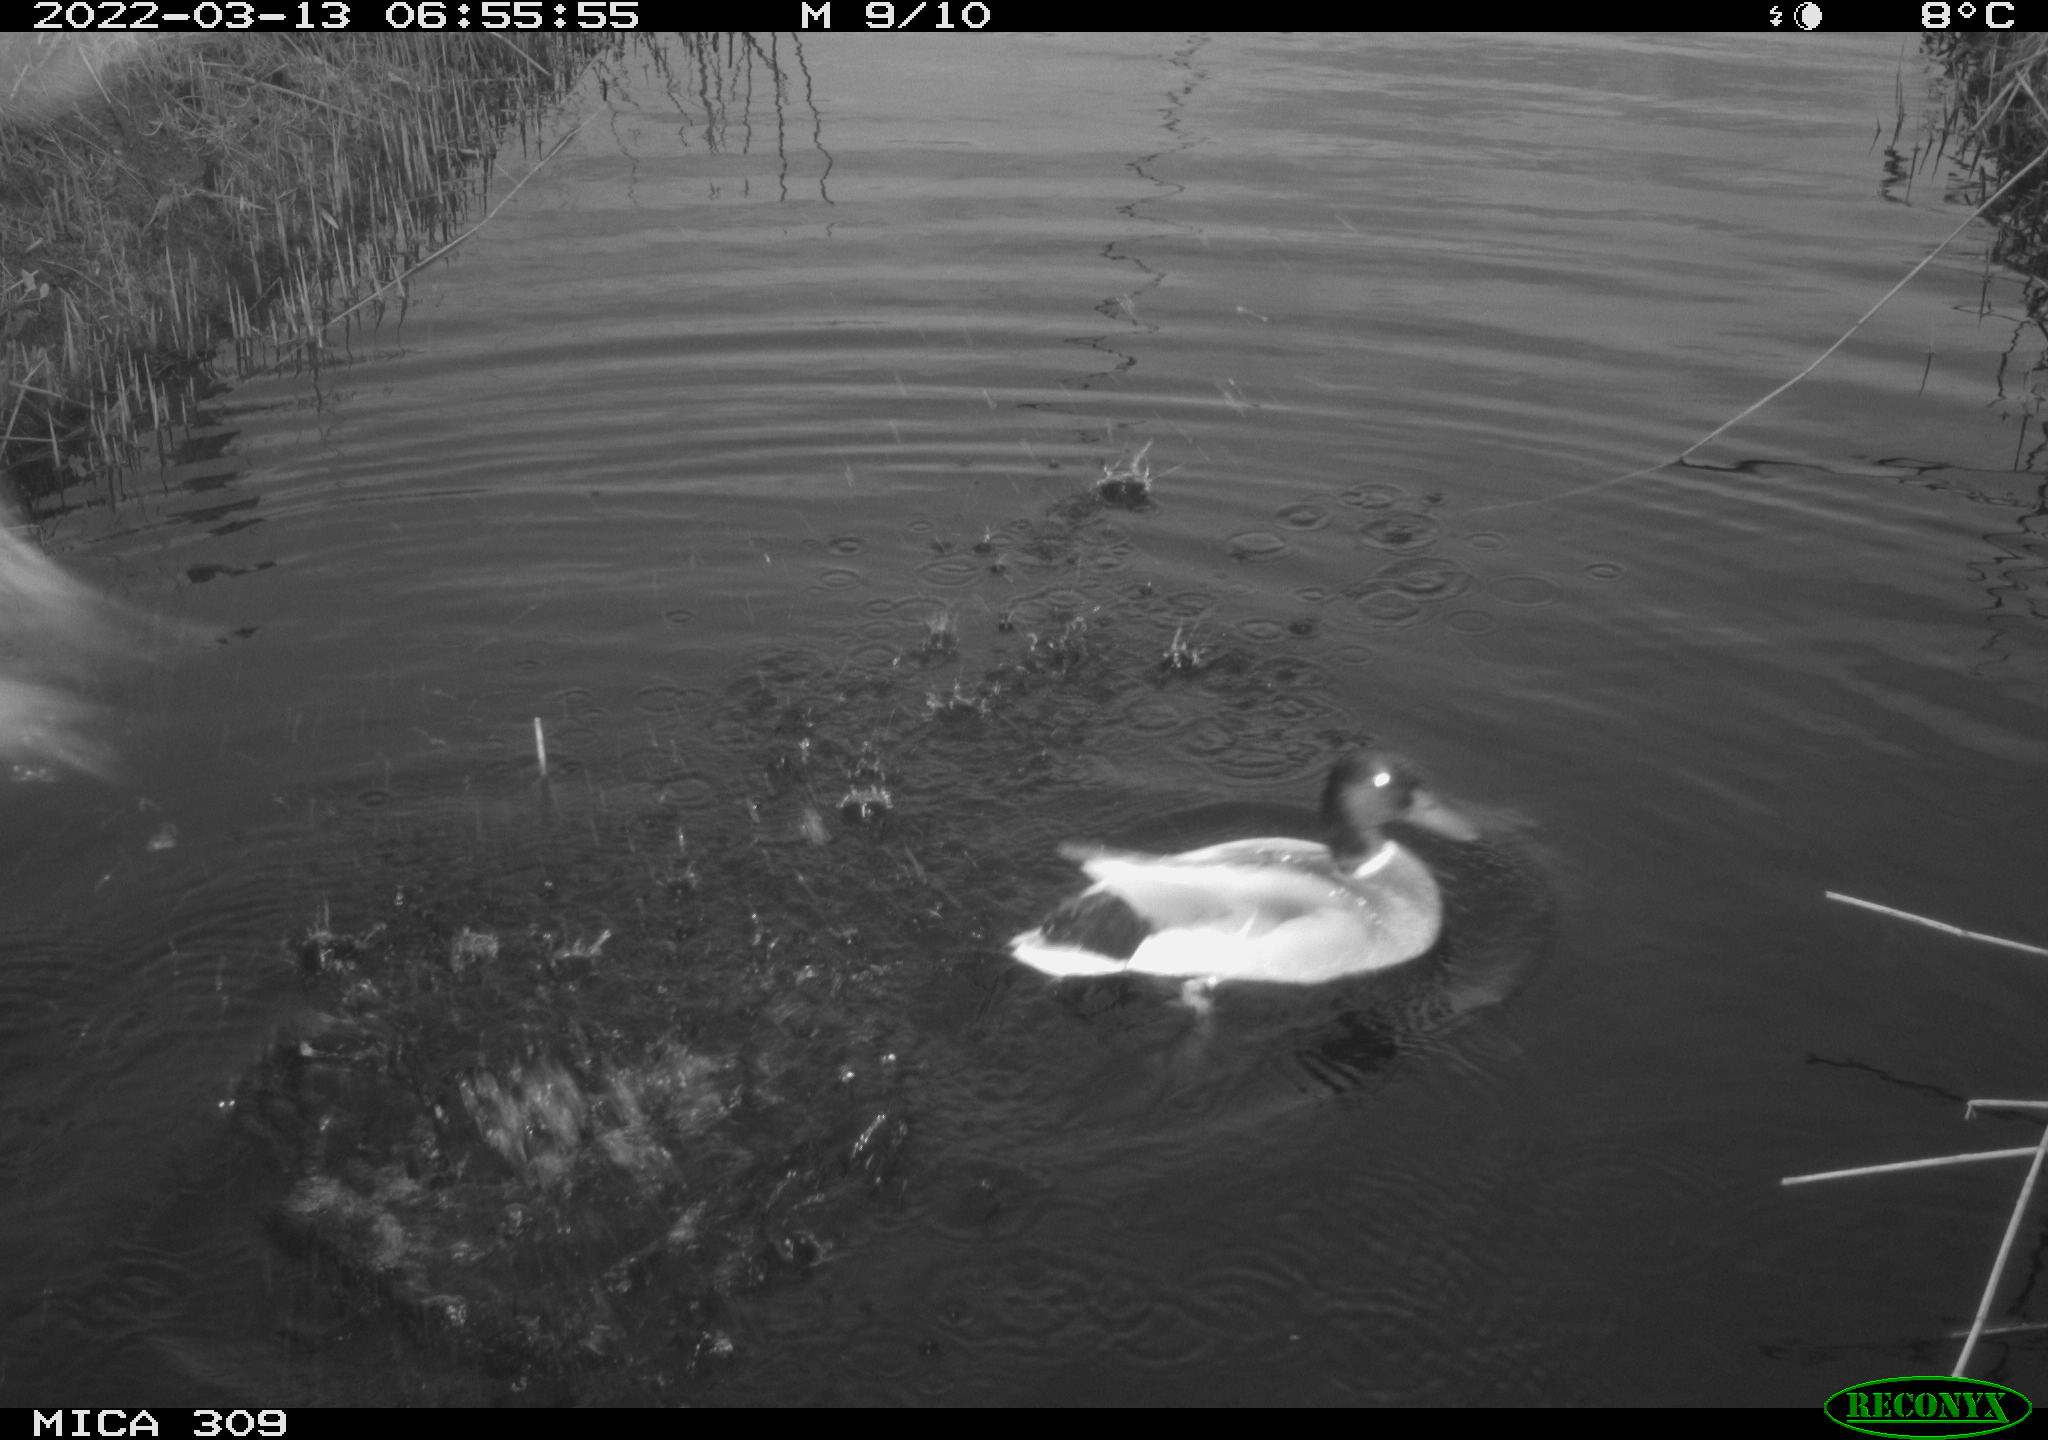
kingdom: Animalia
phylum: Chordata
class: Aves
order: Anseriformes
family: Anatidae
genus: Anas
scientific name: Anas platyrhynchos
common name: Mallard
